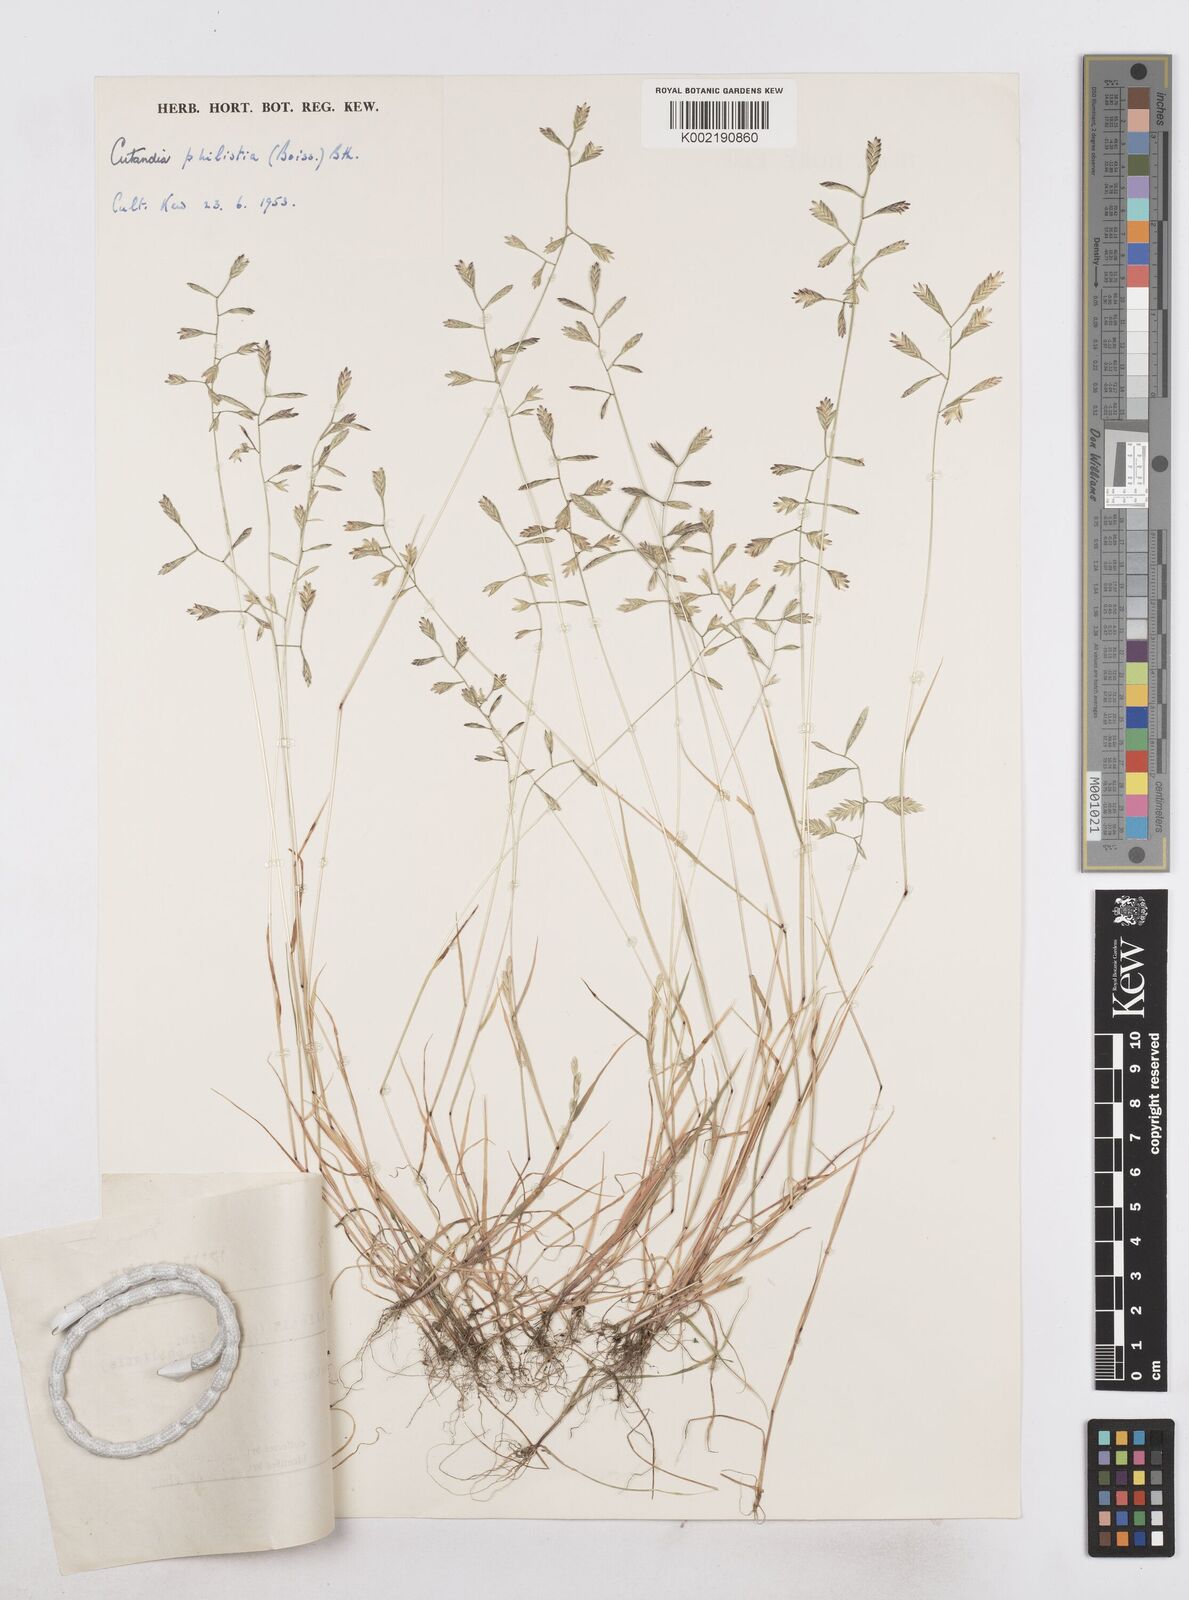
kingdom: Plantae
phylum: Tracheophyta
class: Liliopsida
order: Poales
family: Poaceae
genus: Desmazeria
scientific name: Desmazeria philistaea
